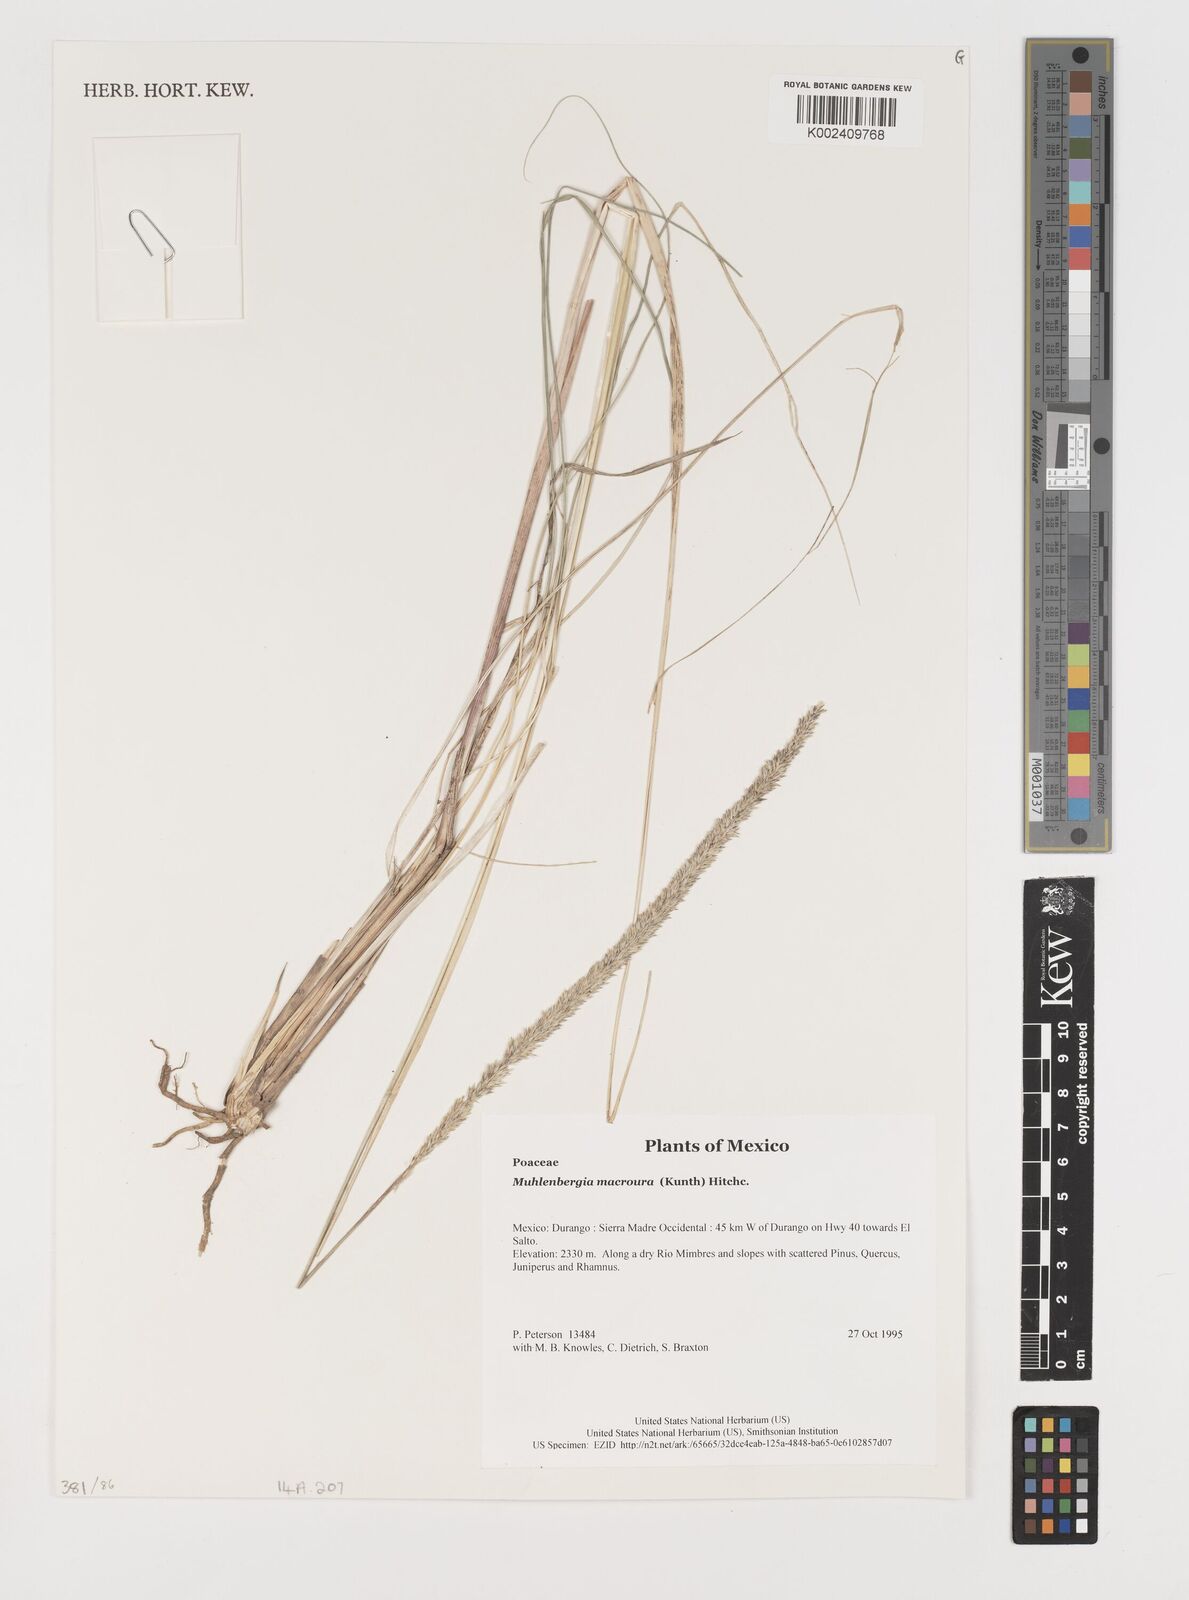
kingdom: Plantae
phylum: Tracheophyta
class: Liliopsida
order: Poales
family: Poaceae
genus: Muhlenbergia
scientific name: Muhlenbergia macroura
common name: Mexican broomroot
